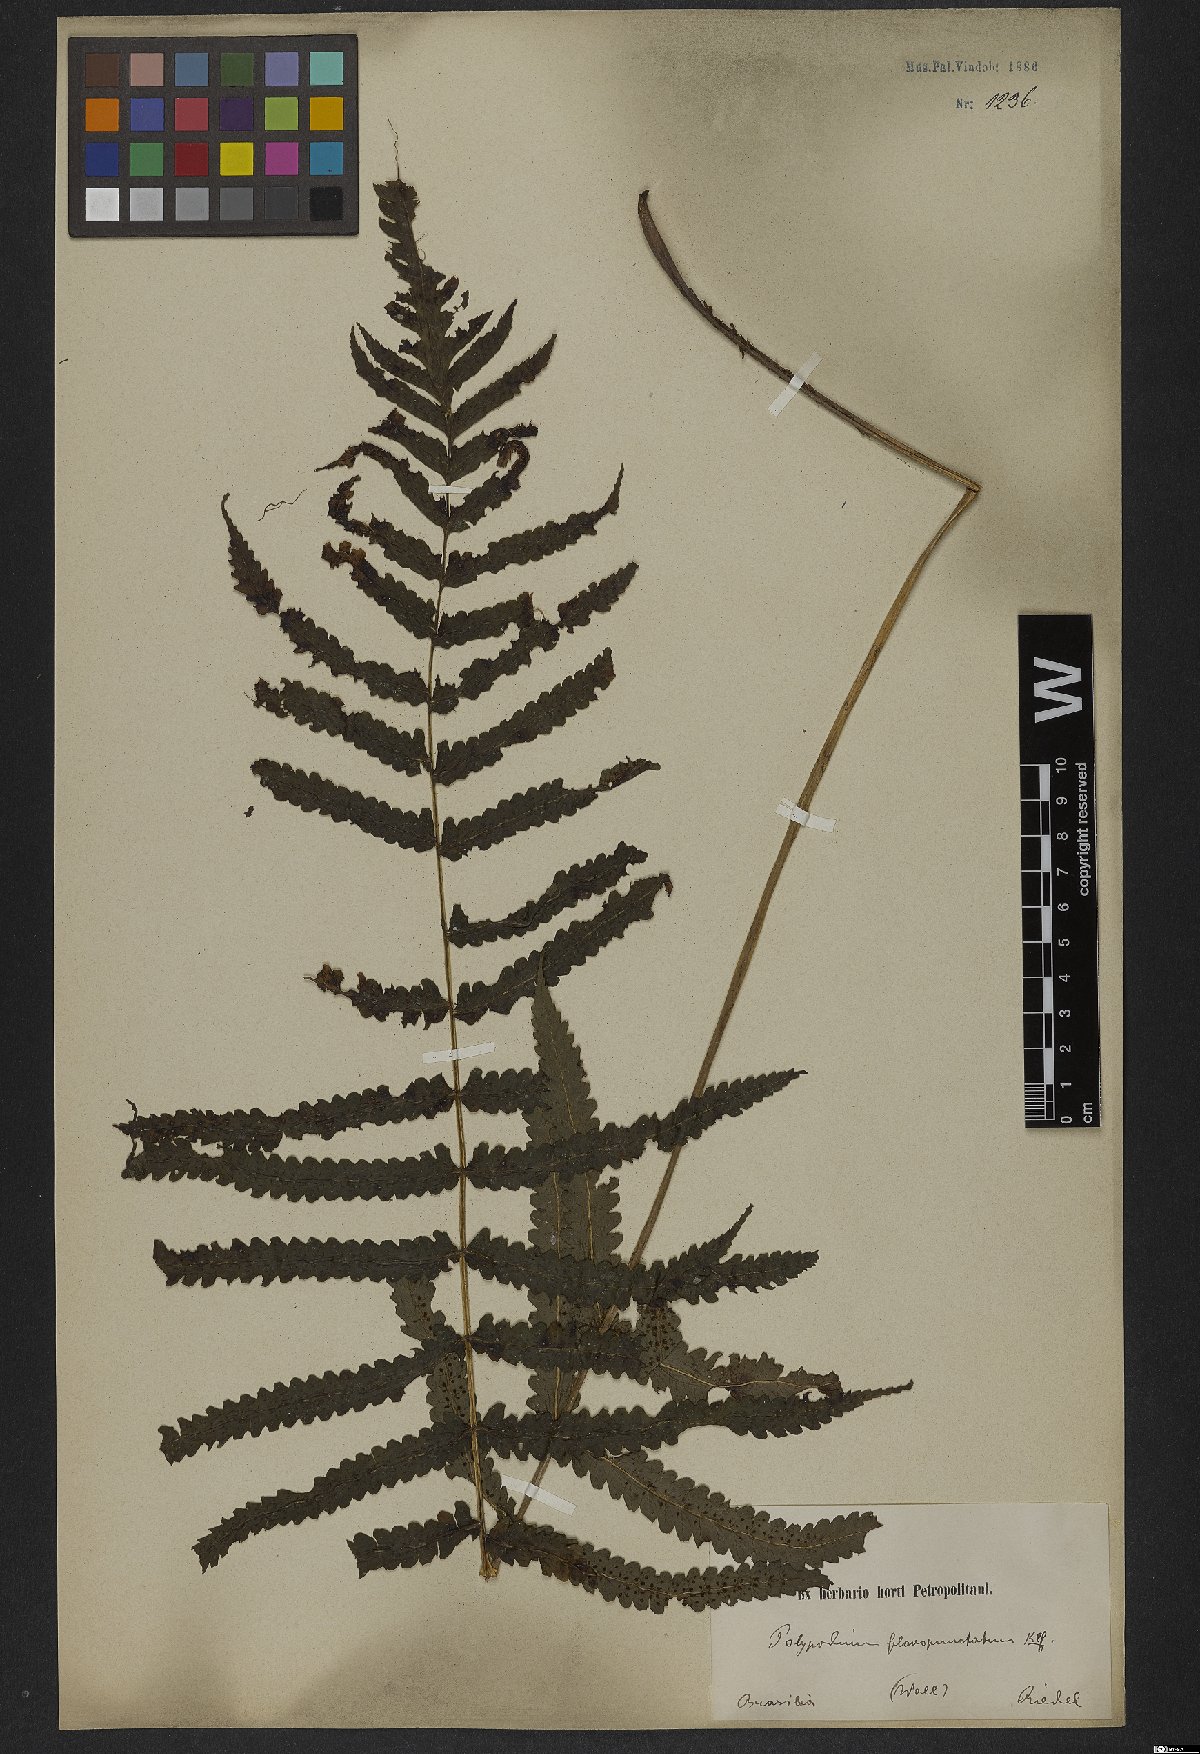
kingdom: Plantae
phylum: Tracheophyta
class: Polypodiopsida
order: Polypodiales
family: Dryopteridaceae
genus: Stigmatopteris
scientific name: Stigmatopteris rotundata
